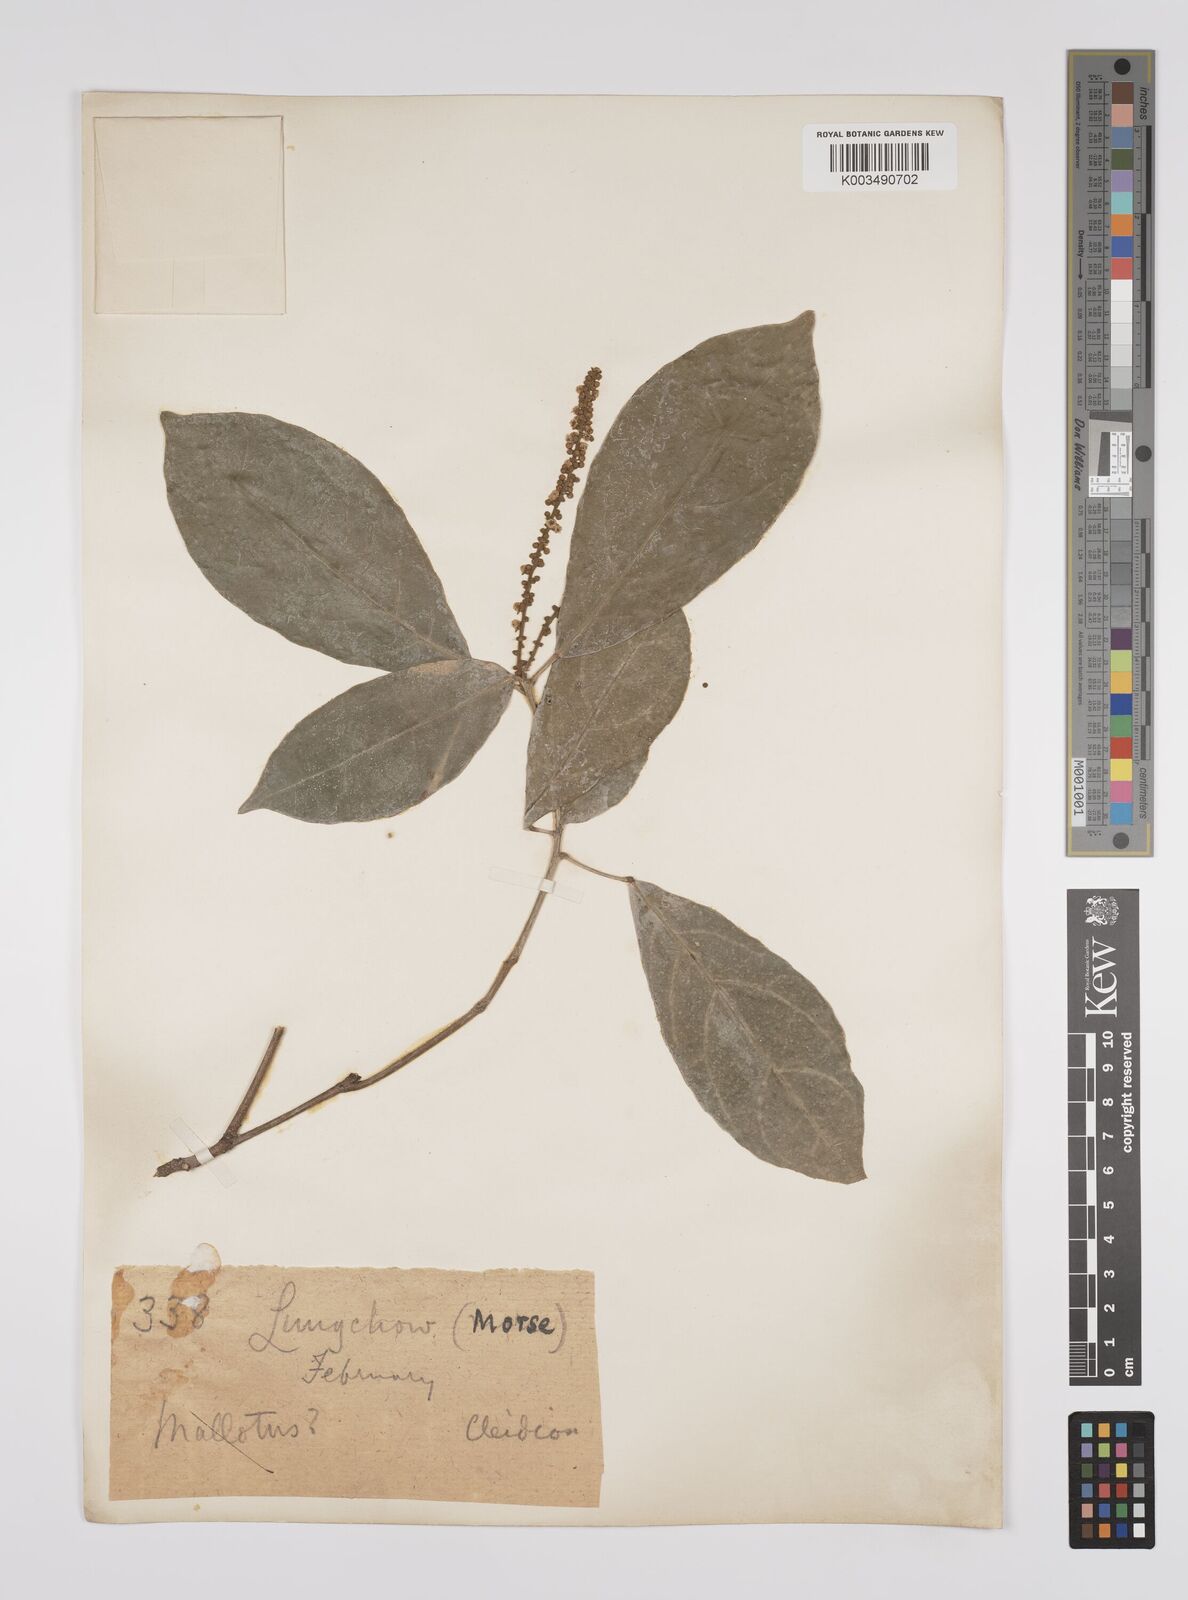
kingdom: Plantae
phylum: Tracheophyta
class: Magnoliopsida
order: Malpighiales
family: Euphorbiaceae
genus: Cleidion
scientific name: Cleidion brevipetiolatum
